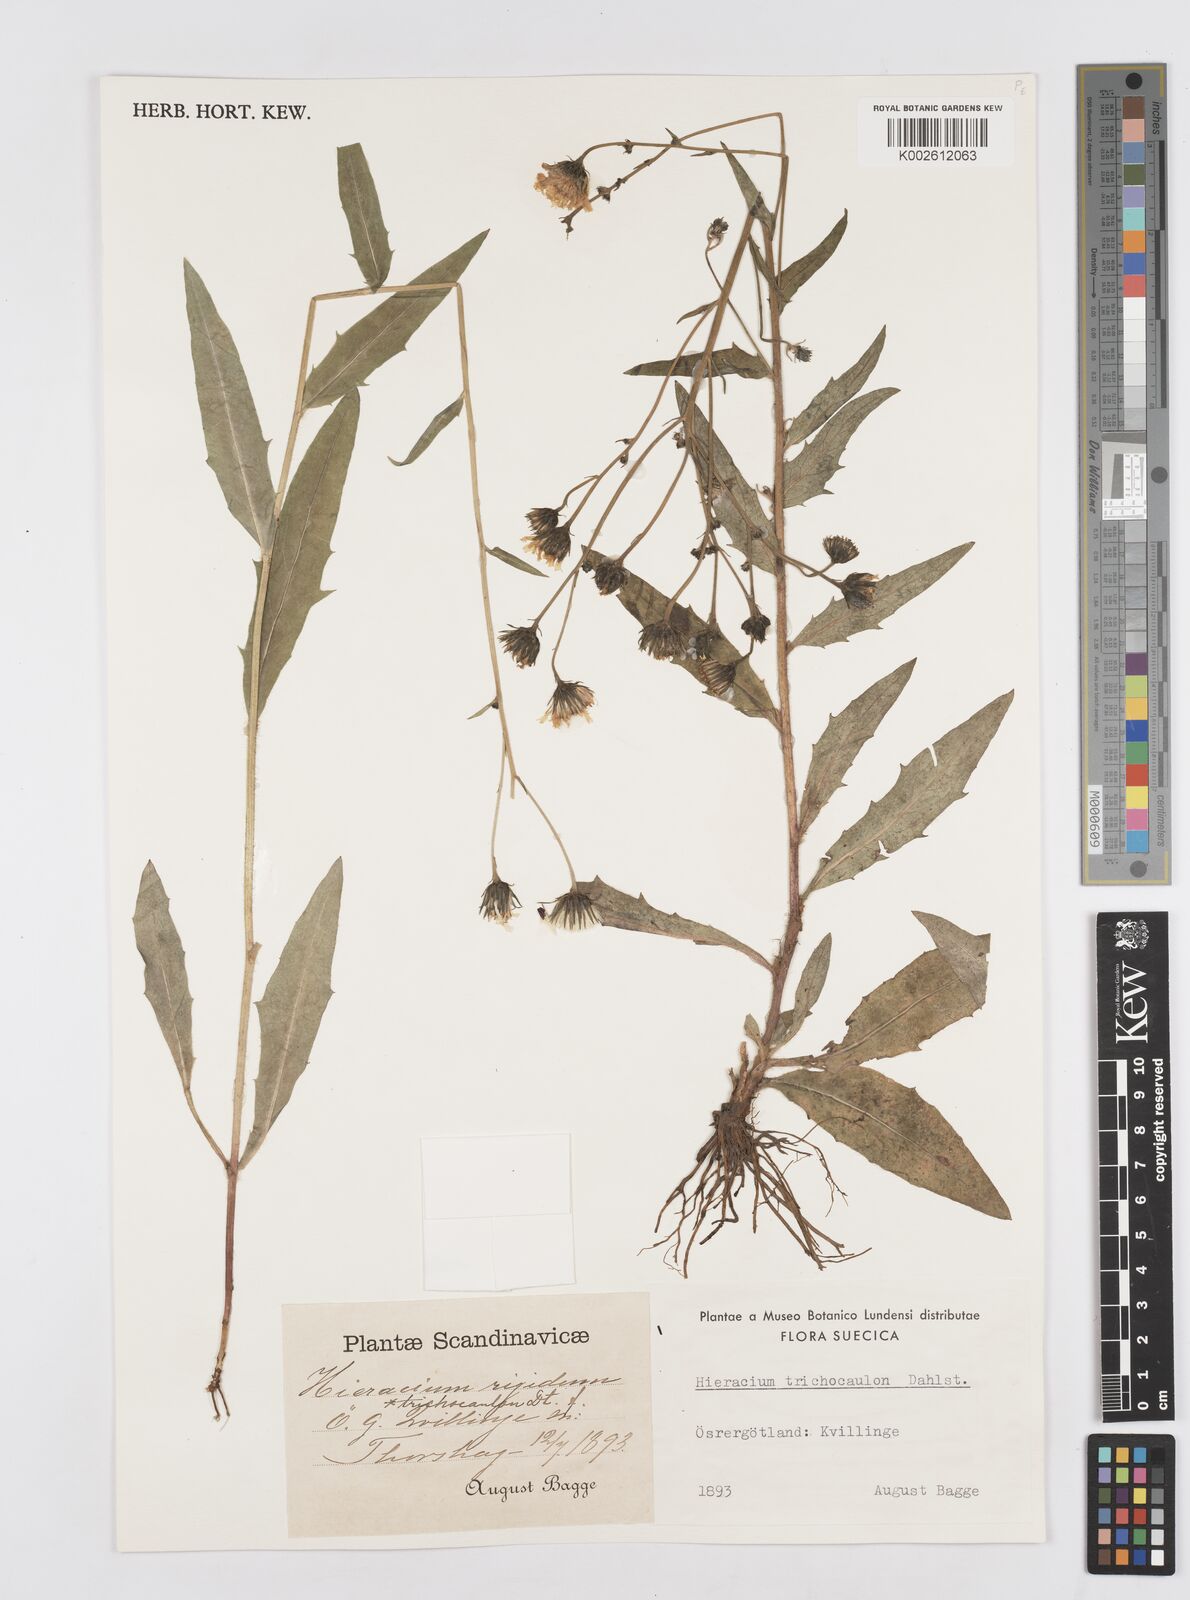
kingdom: Plantae
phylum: Tracheophyta
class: Magnoliopsida
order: Asterales
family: Asteraceae
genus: Hieracium
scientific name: Hieracium trichocaulon
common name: Hairy-stemmed hawkweed
